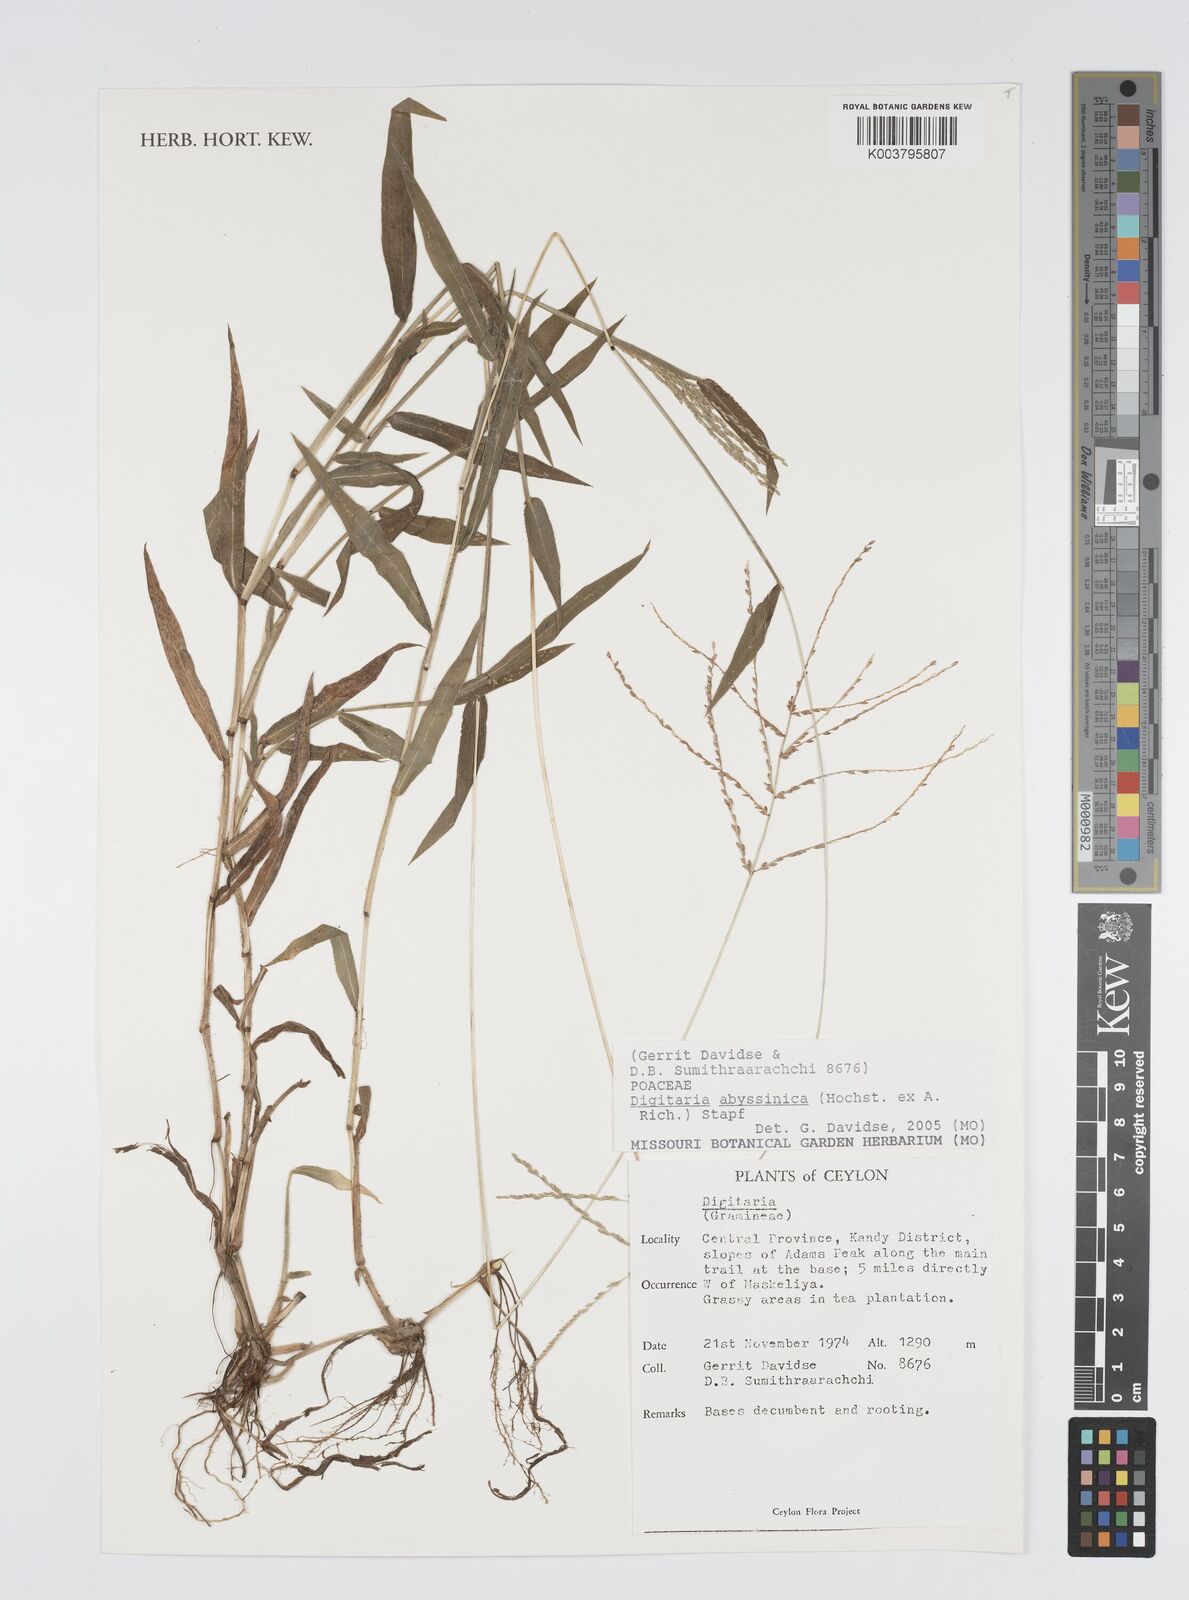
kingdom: Plantae
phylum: Tracheophyta
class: Liliopsida
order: Poales
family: Poaceae
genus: Digitaria
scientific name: Digitaria abyssinica
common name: African couchgrass
